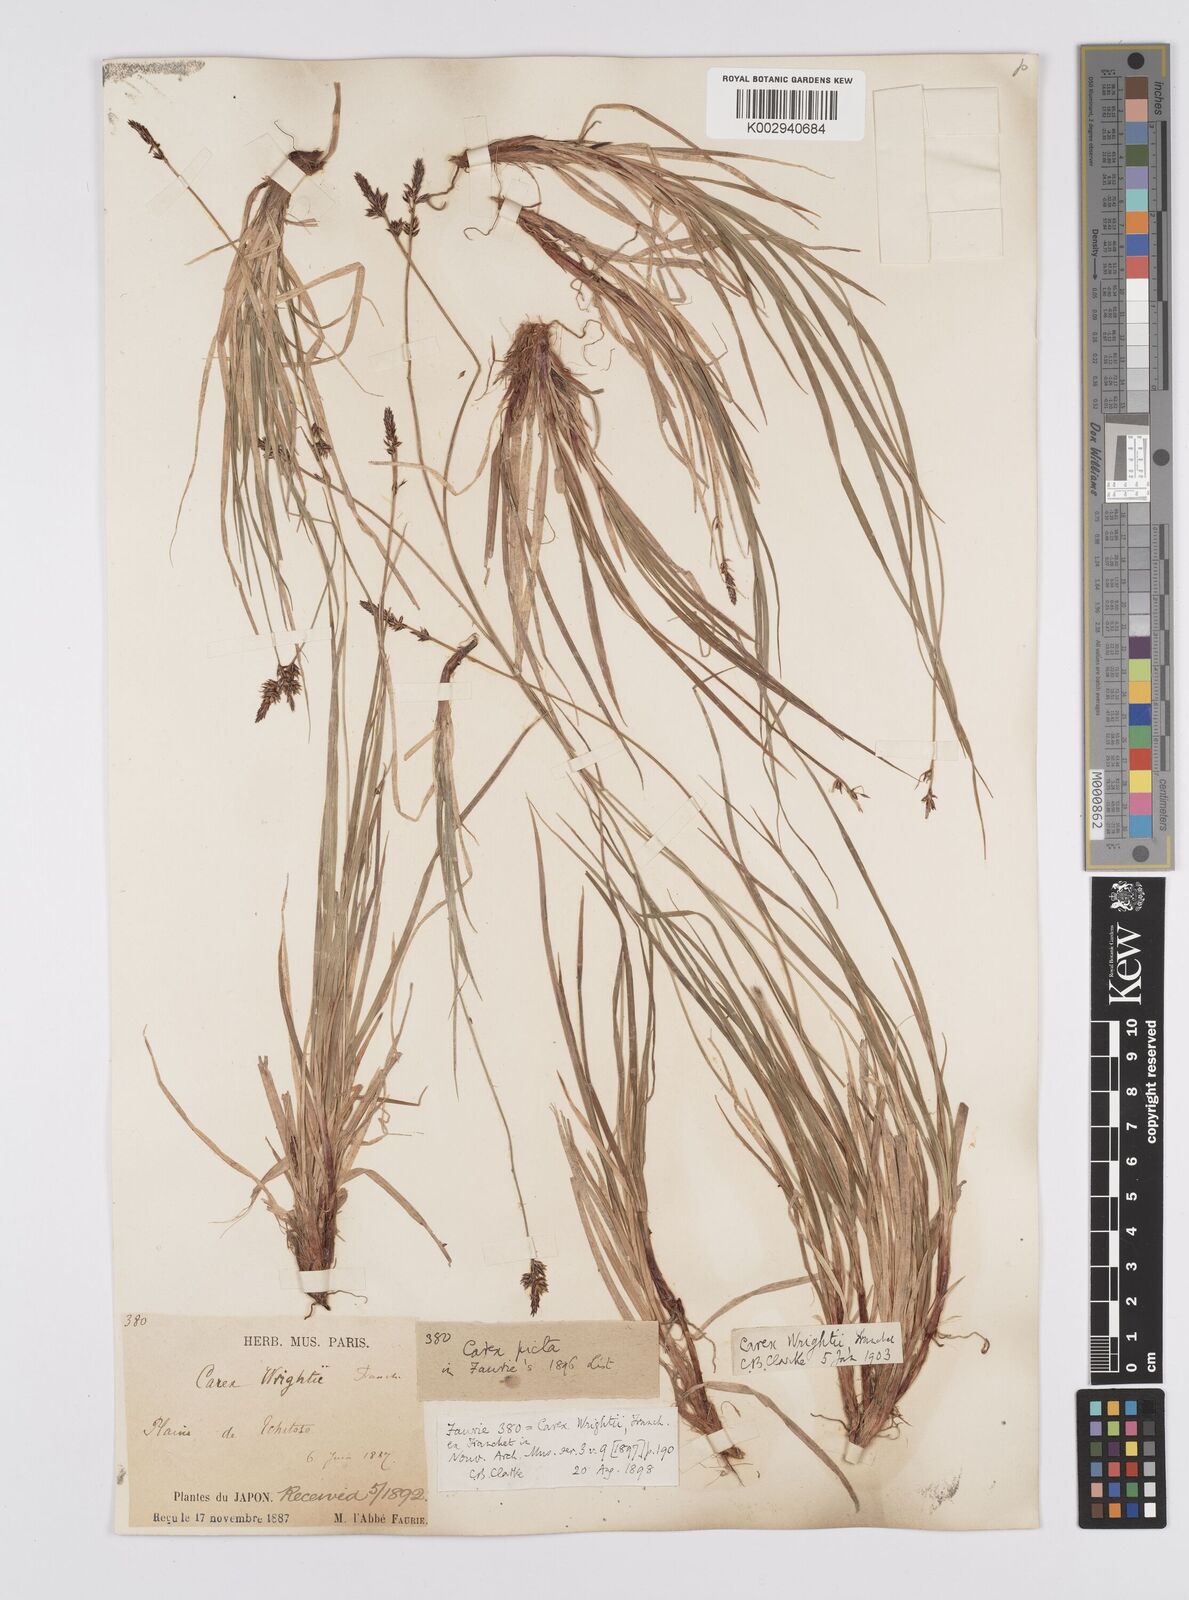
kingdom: Plantae
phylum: Tracheophyta
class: Liliopsida
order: Poales
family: Cyperaceae
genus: Carex
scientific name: Carex oxyandra
